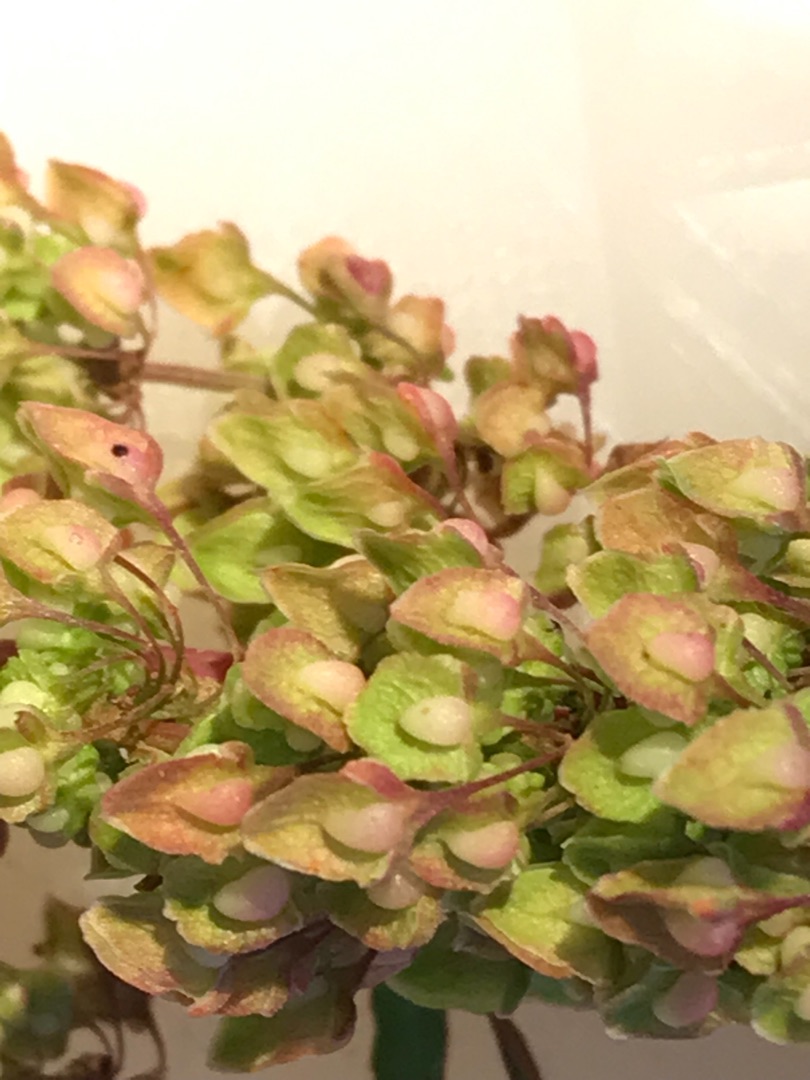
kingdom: Plantae
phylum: Tracheophyta
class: Magnoliopsida
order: Caryophyllales
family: Polygonaceae
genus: Rumex
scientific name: Rumex crispus
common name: Kruset skræppe
